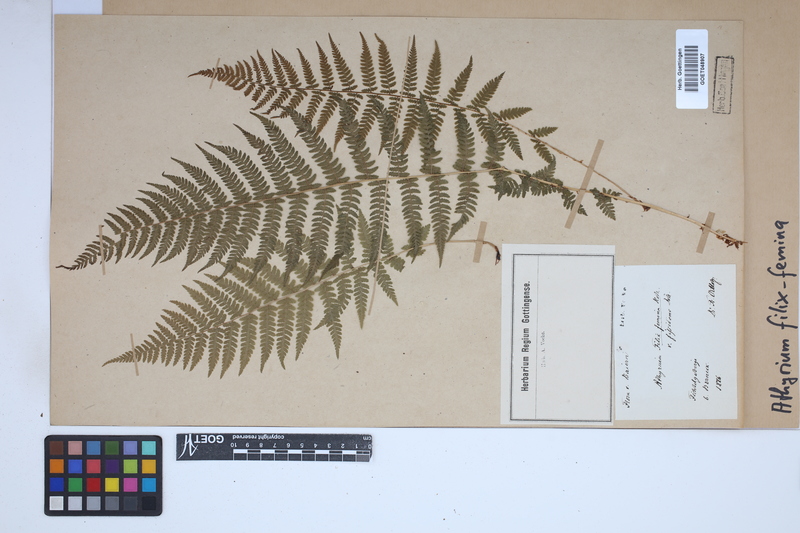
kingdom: Plantae
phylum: Tracheophyta
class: Polypodiopsida
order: Polypodiales
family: Athyriaceae
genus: Athyrium
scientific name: Athyrium filix-femina
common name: Lady fern
